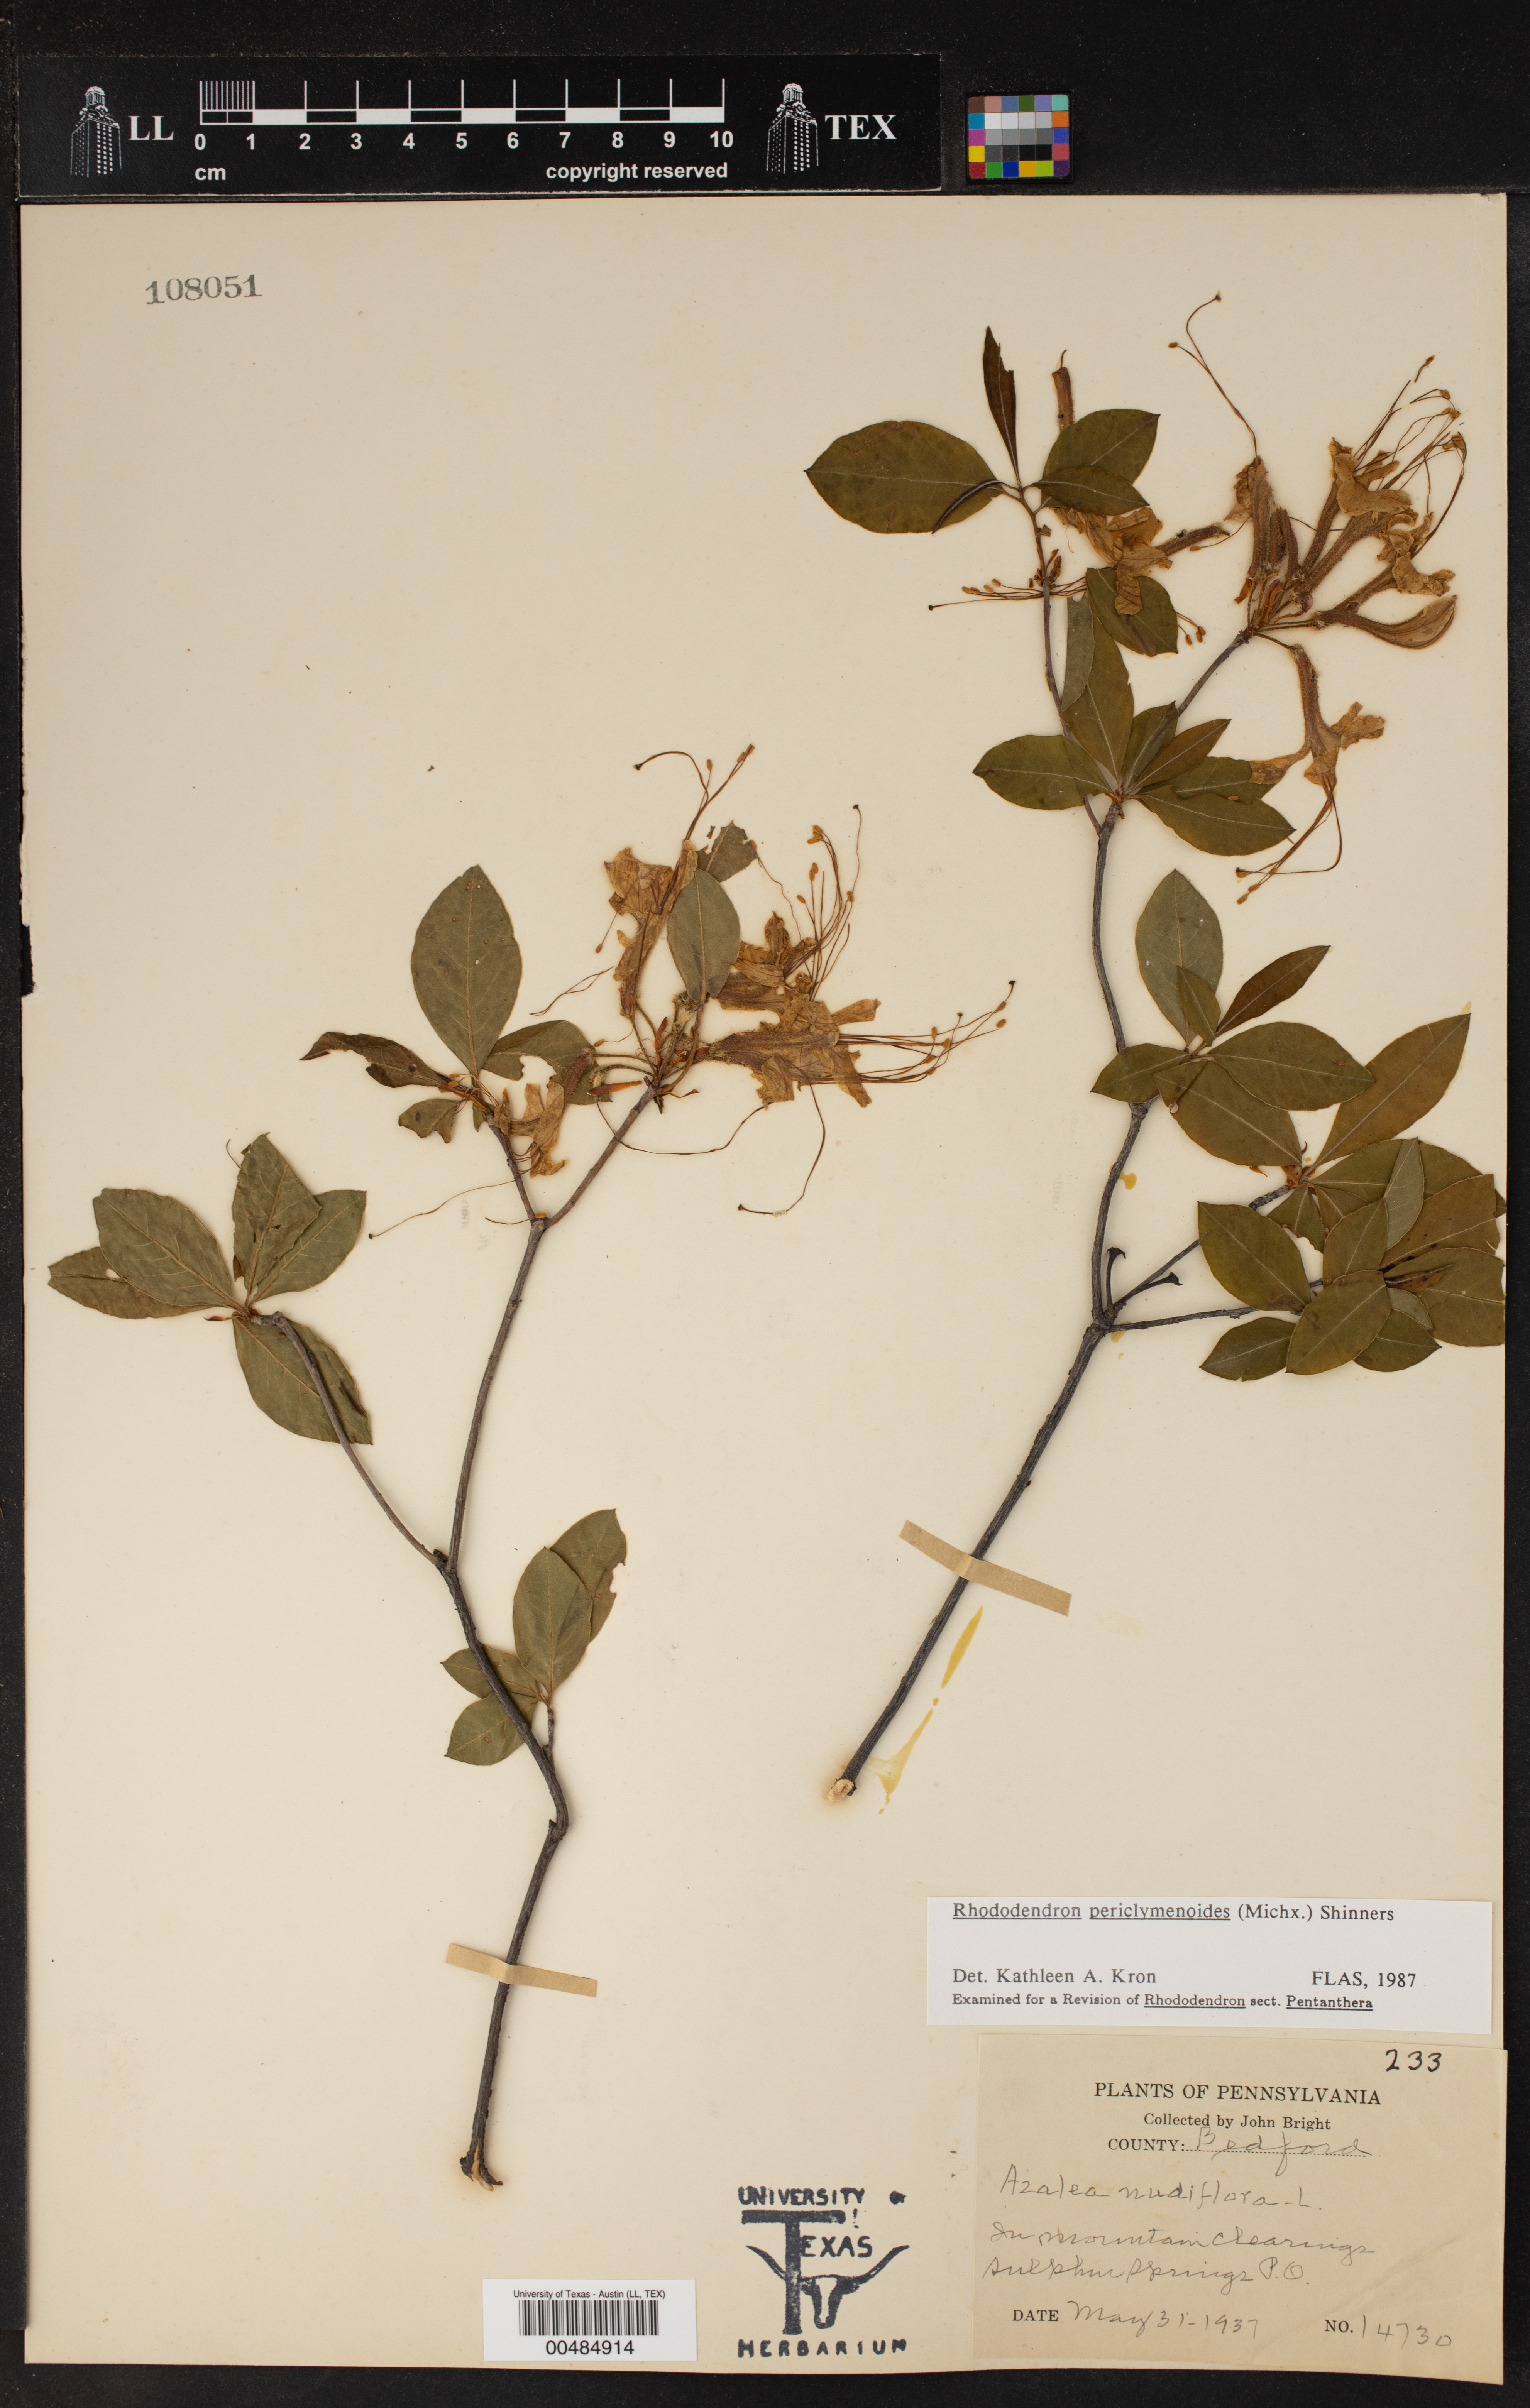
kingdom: Plantae
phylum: Tracheophyta
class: Magnoliopsida
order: Ericales
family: Ericaceae
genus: Rhododendron
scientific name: Rhododendron periclymenoides
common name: Election-pink
